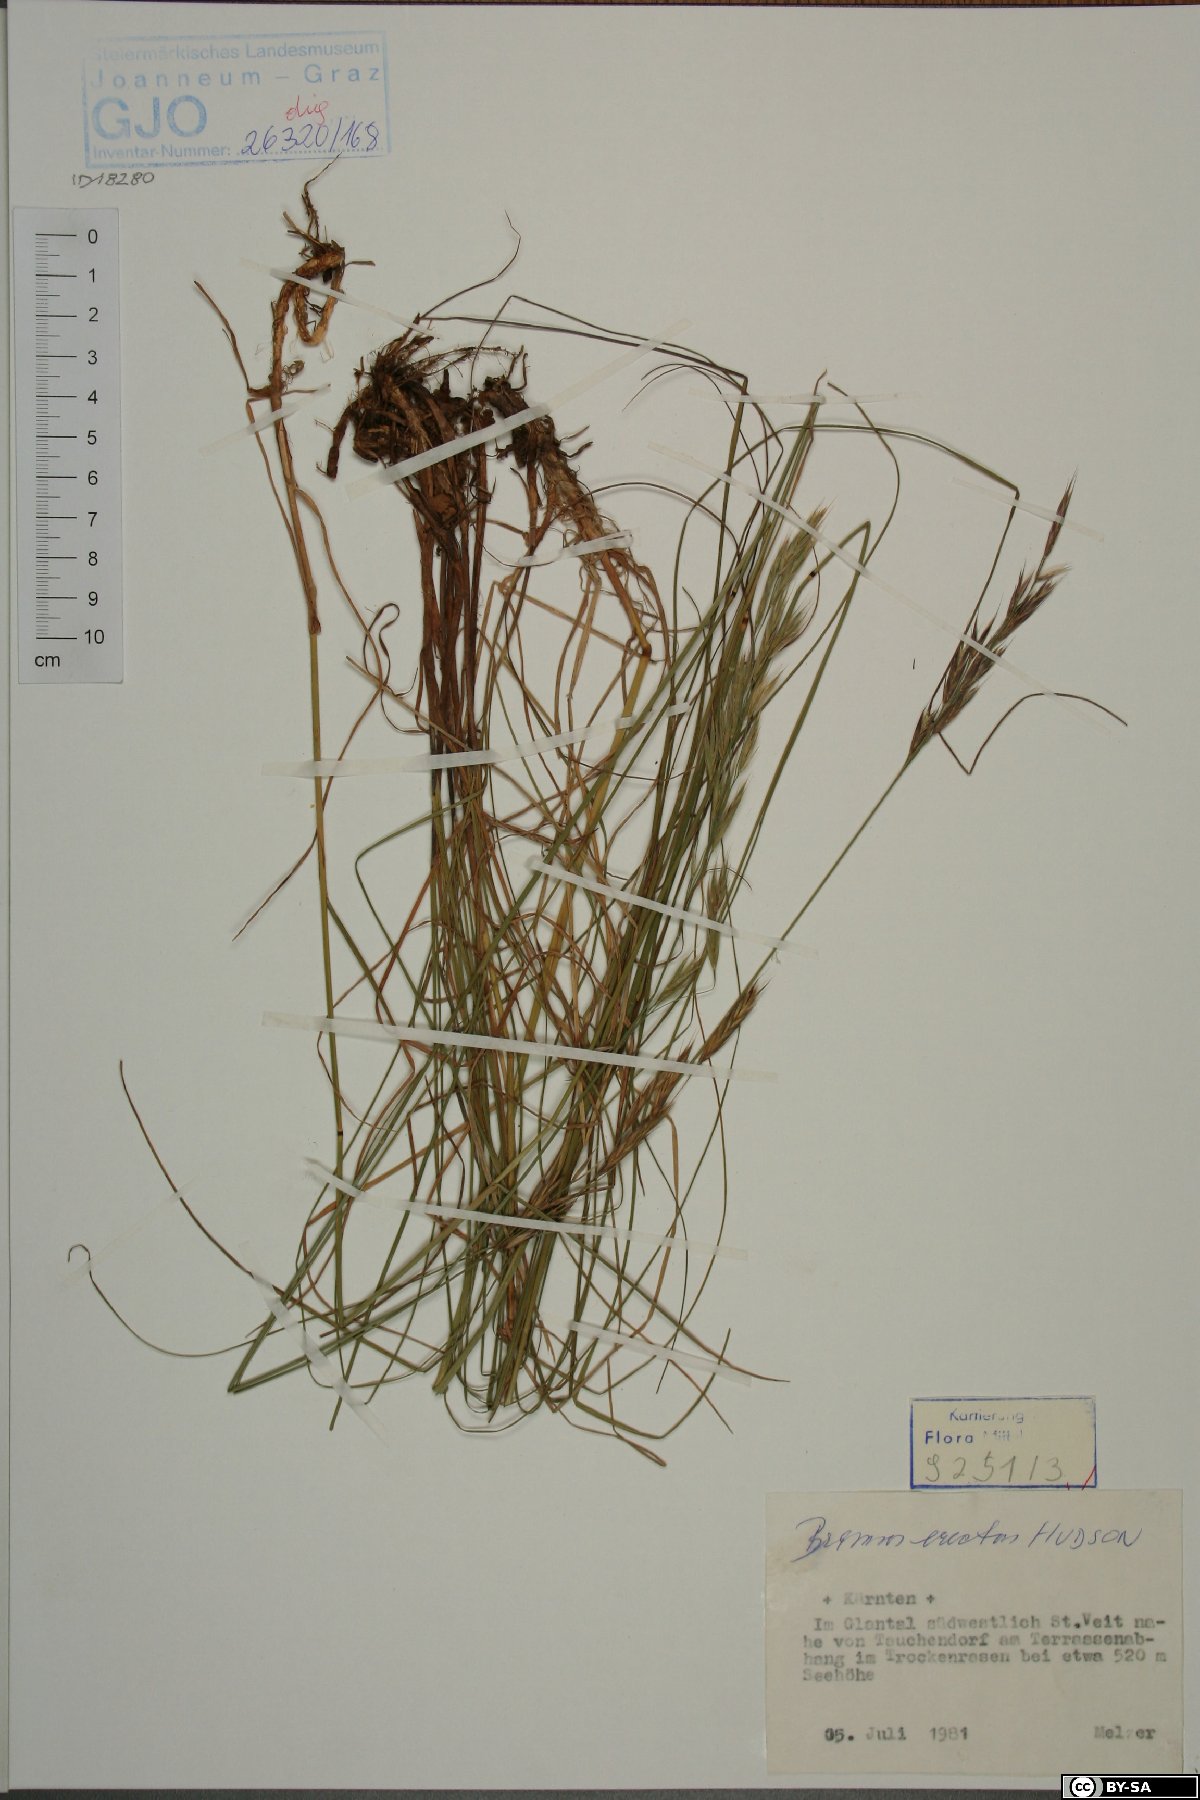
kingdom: Plantae
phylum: Tracheophyta
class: Liliopsida
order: Poales
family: Poaceae
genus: Bromus
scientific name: Bromus erectus
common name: Erect brome
